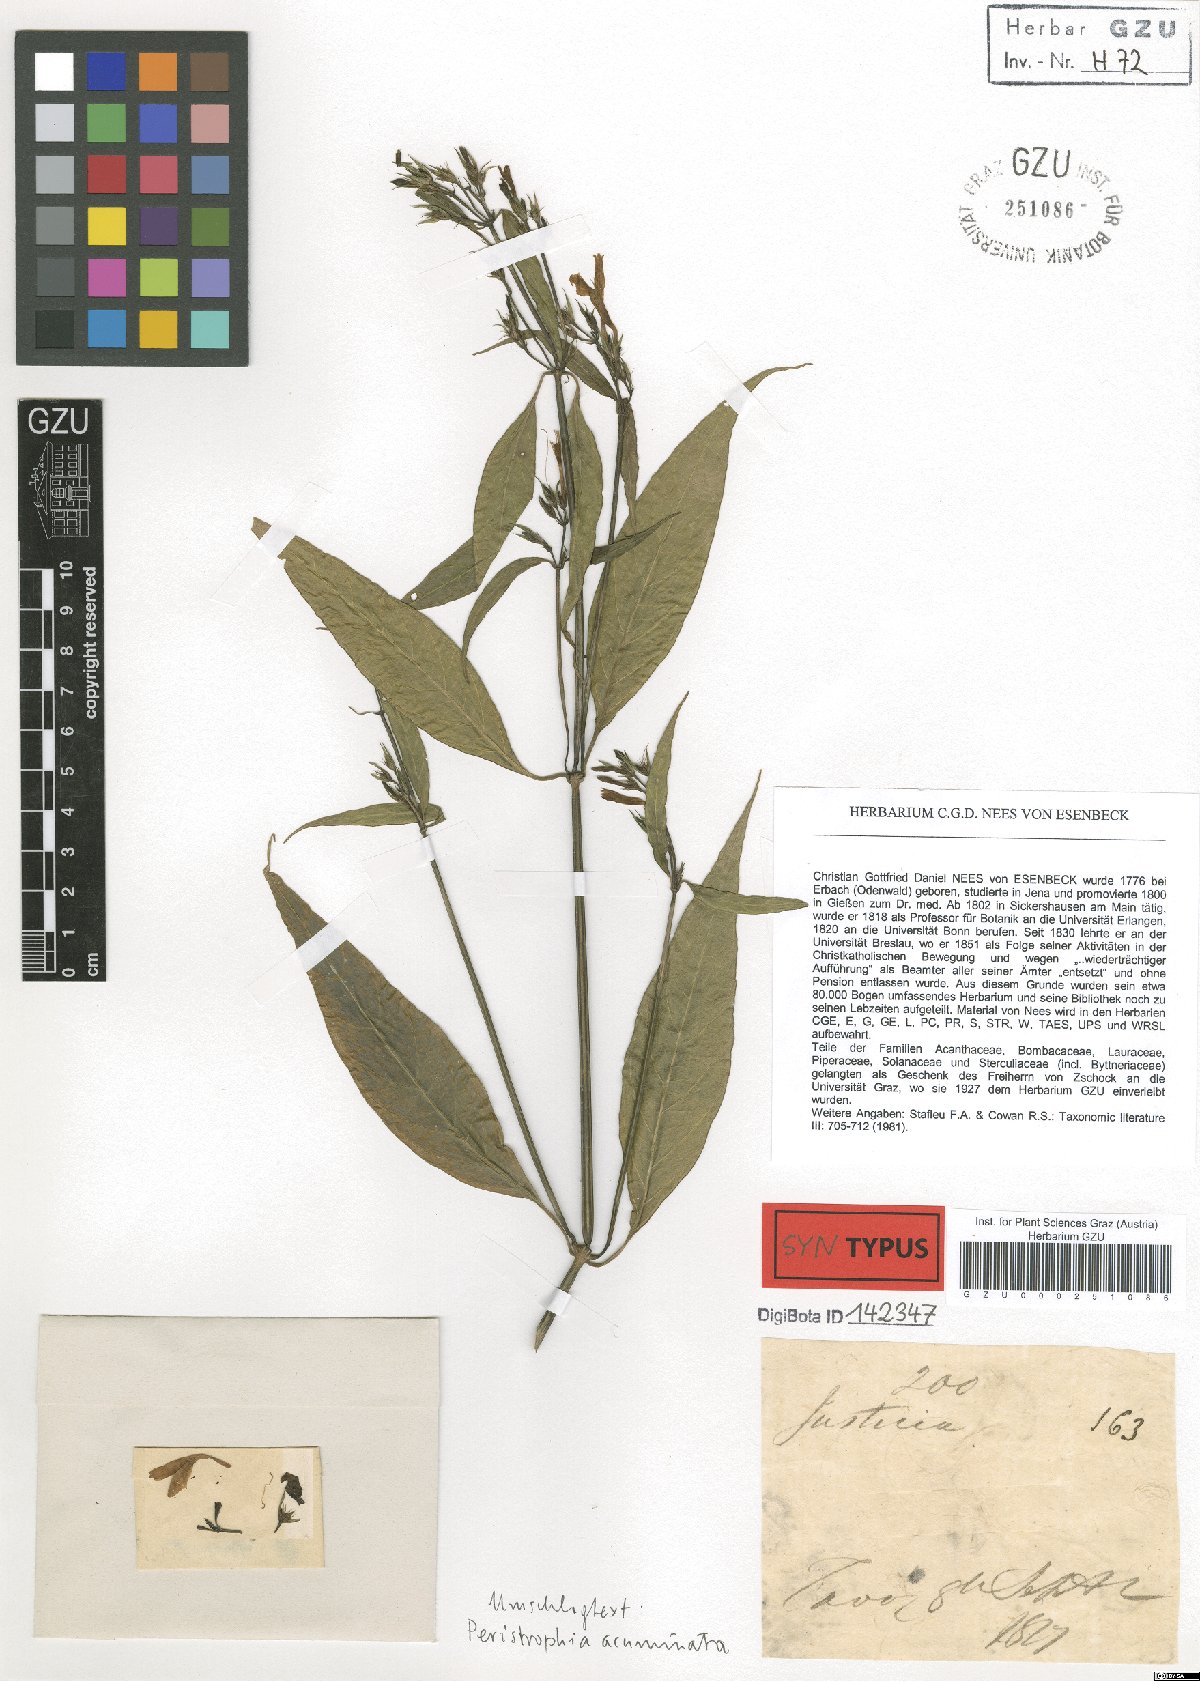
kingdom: Plantae
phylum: Tracheophyta
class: Magnoliopsida
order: Lamiales
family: Acanthaceae
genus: Dicliptera
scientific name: Dicliptera sebastinei
